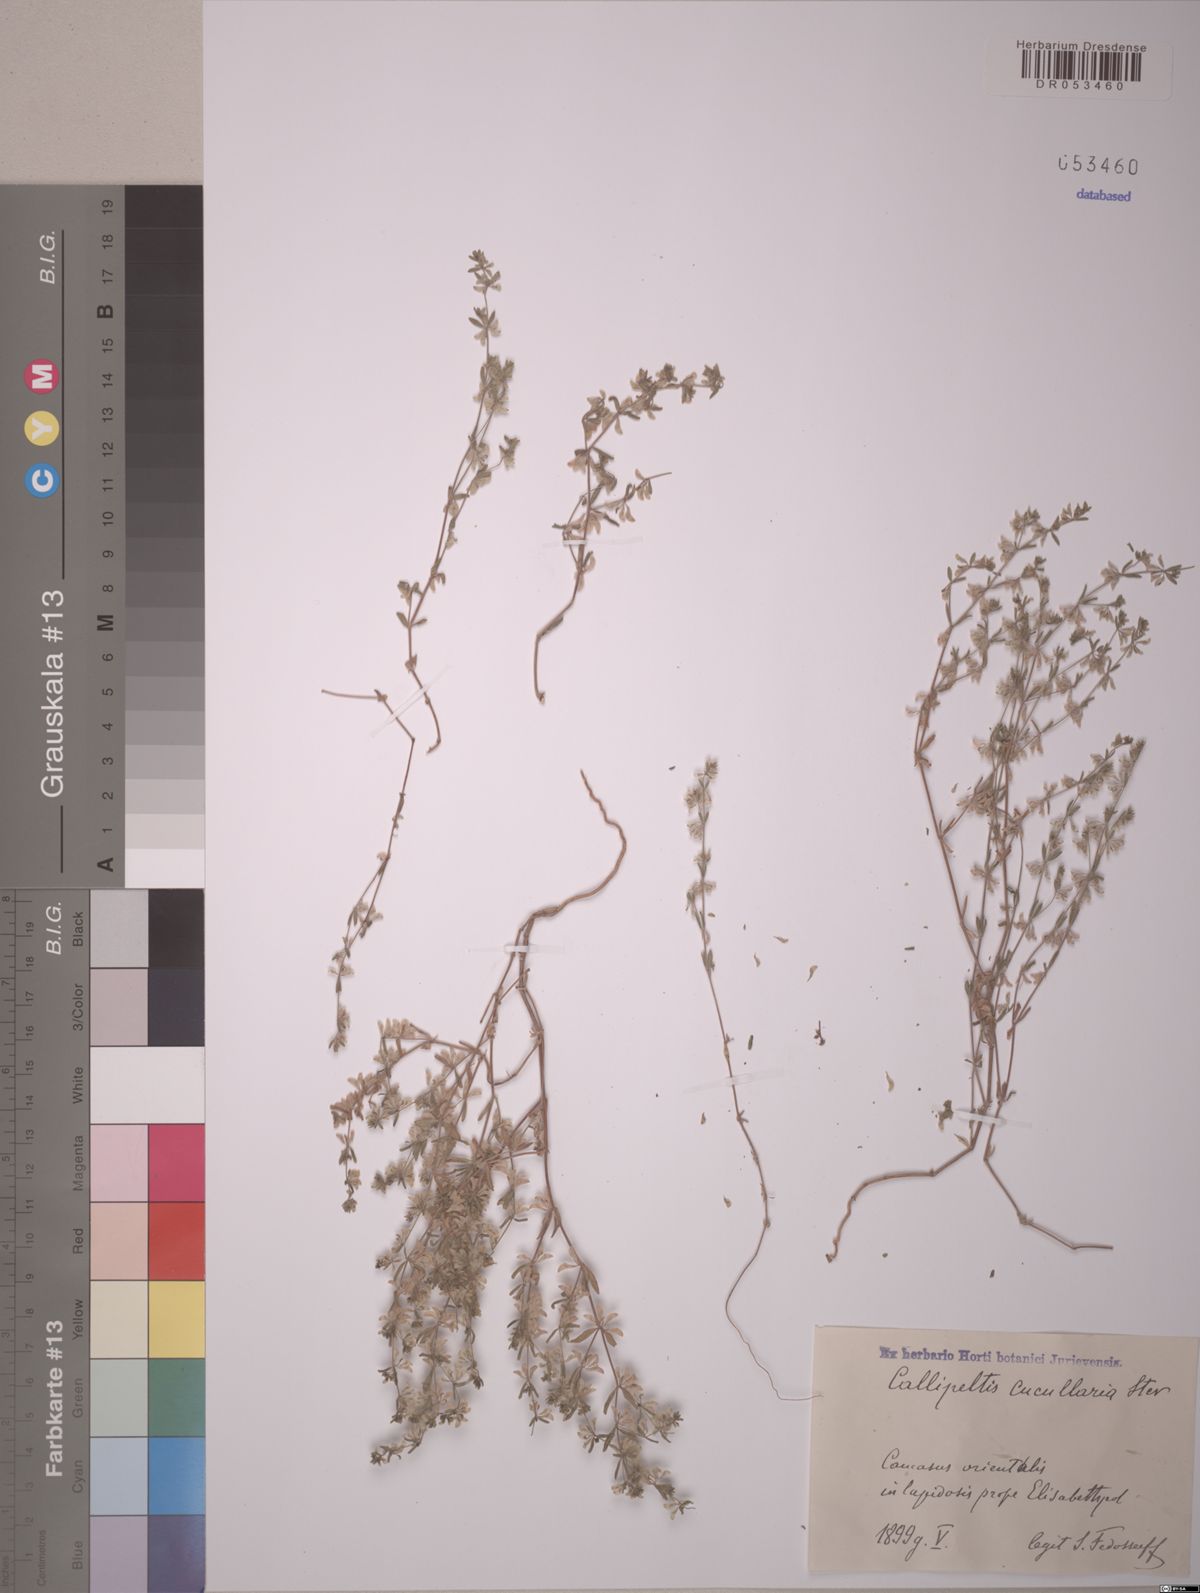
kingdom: Plantae
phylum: Tracheophyta
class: Magnoliopsida
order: Gentianales
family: Rubiaceae
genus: Callipeltis
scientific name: Callipeltis cucullaris
